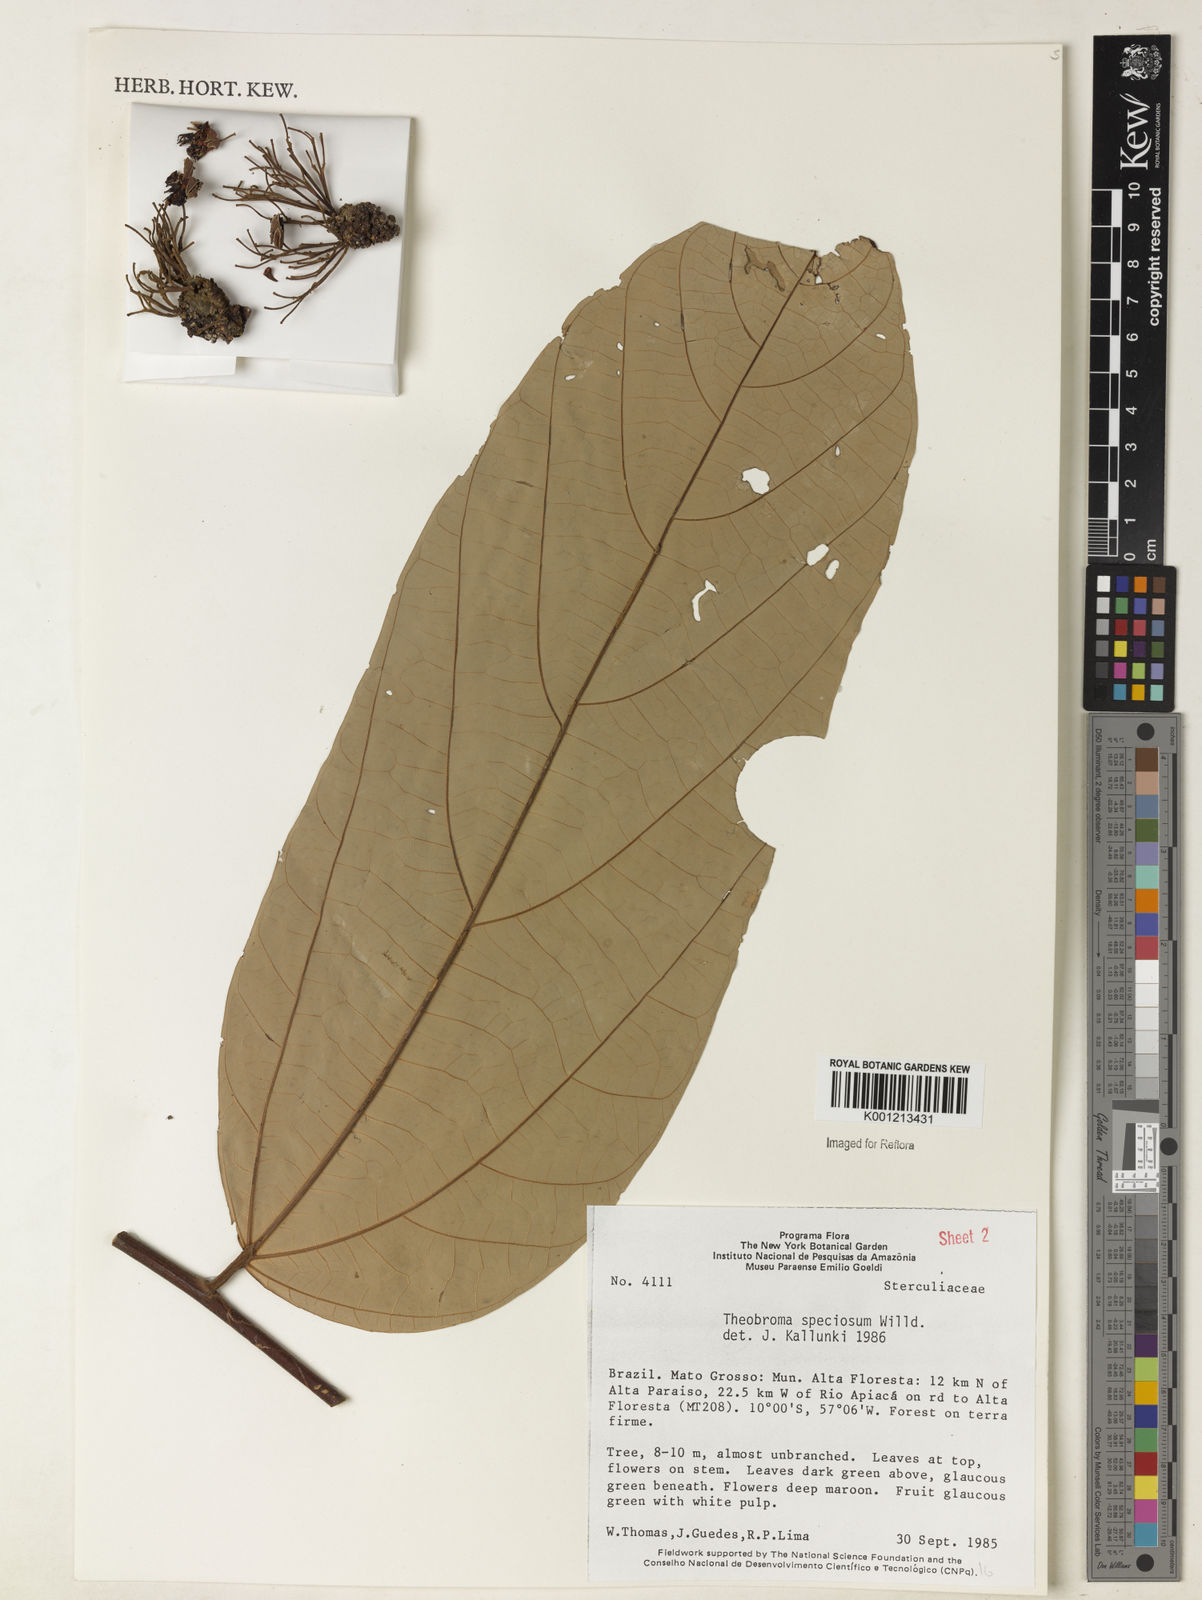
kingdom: Plantae
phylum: Tracheophyta
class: Magnoliopsida
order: Malvales
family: Malvaceae
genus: Theobroma
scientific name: Theobroma speciosum
